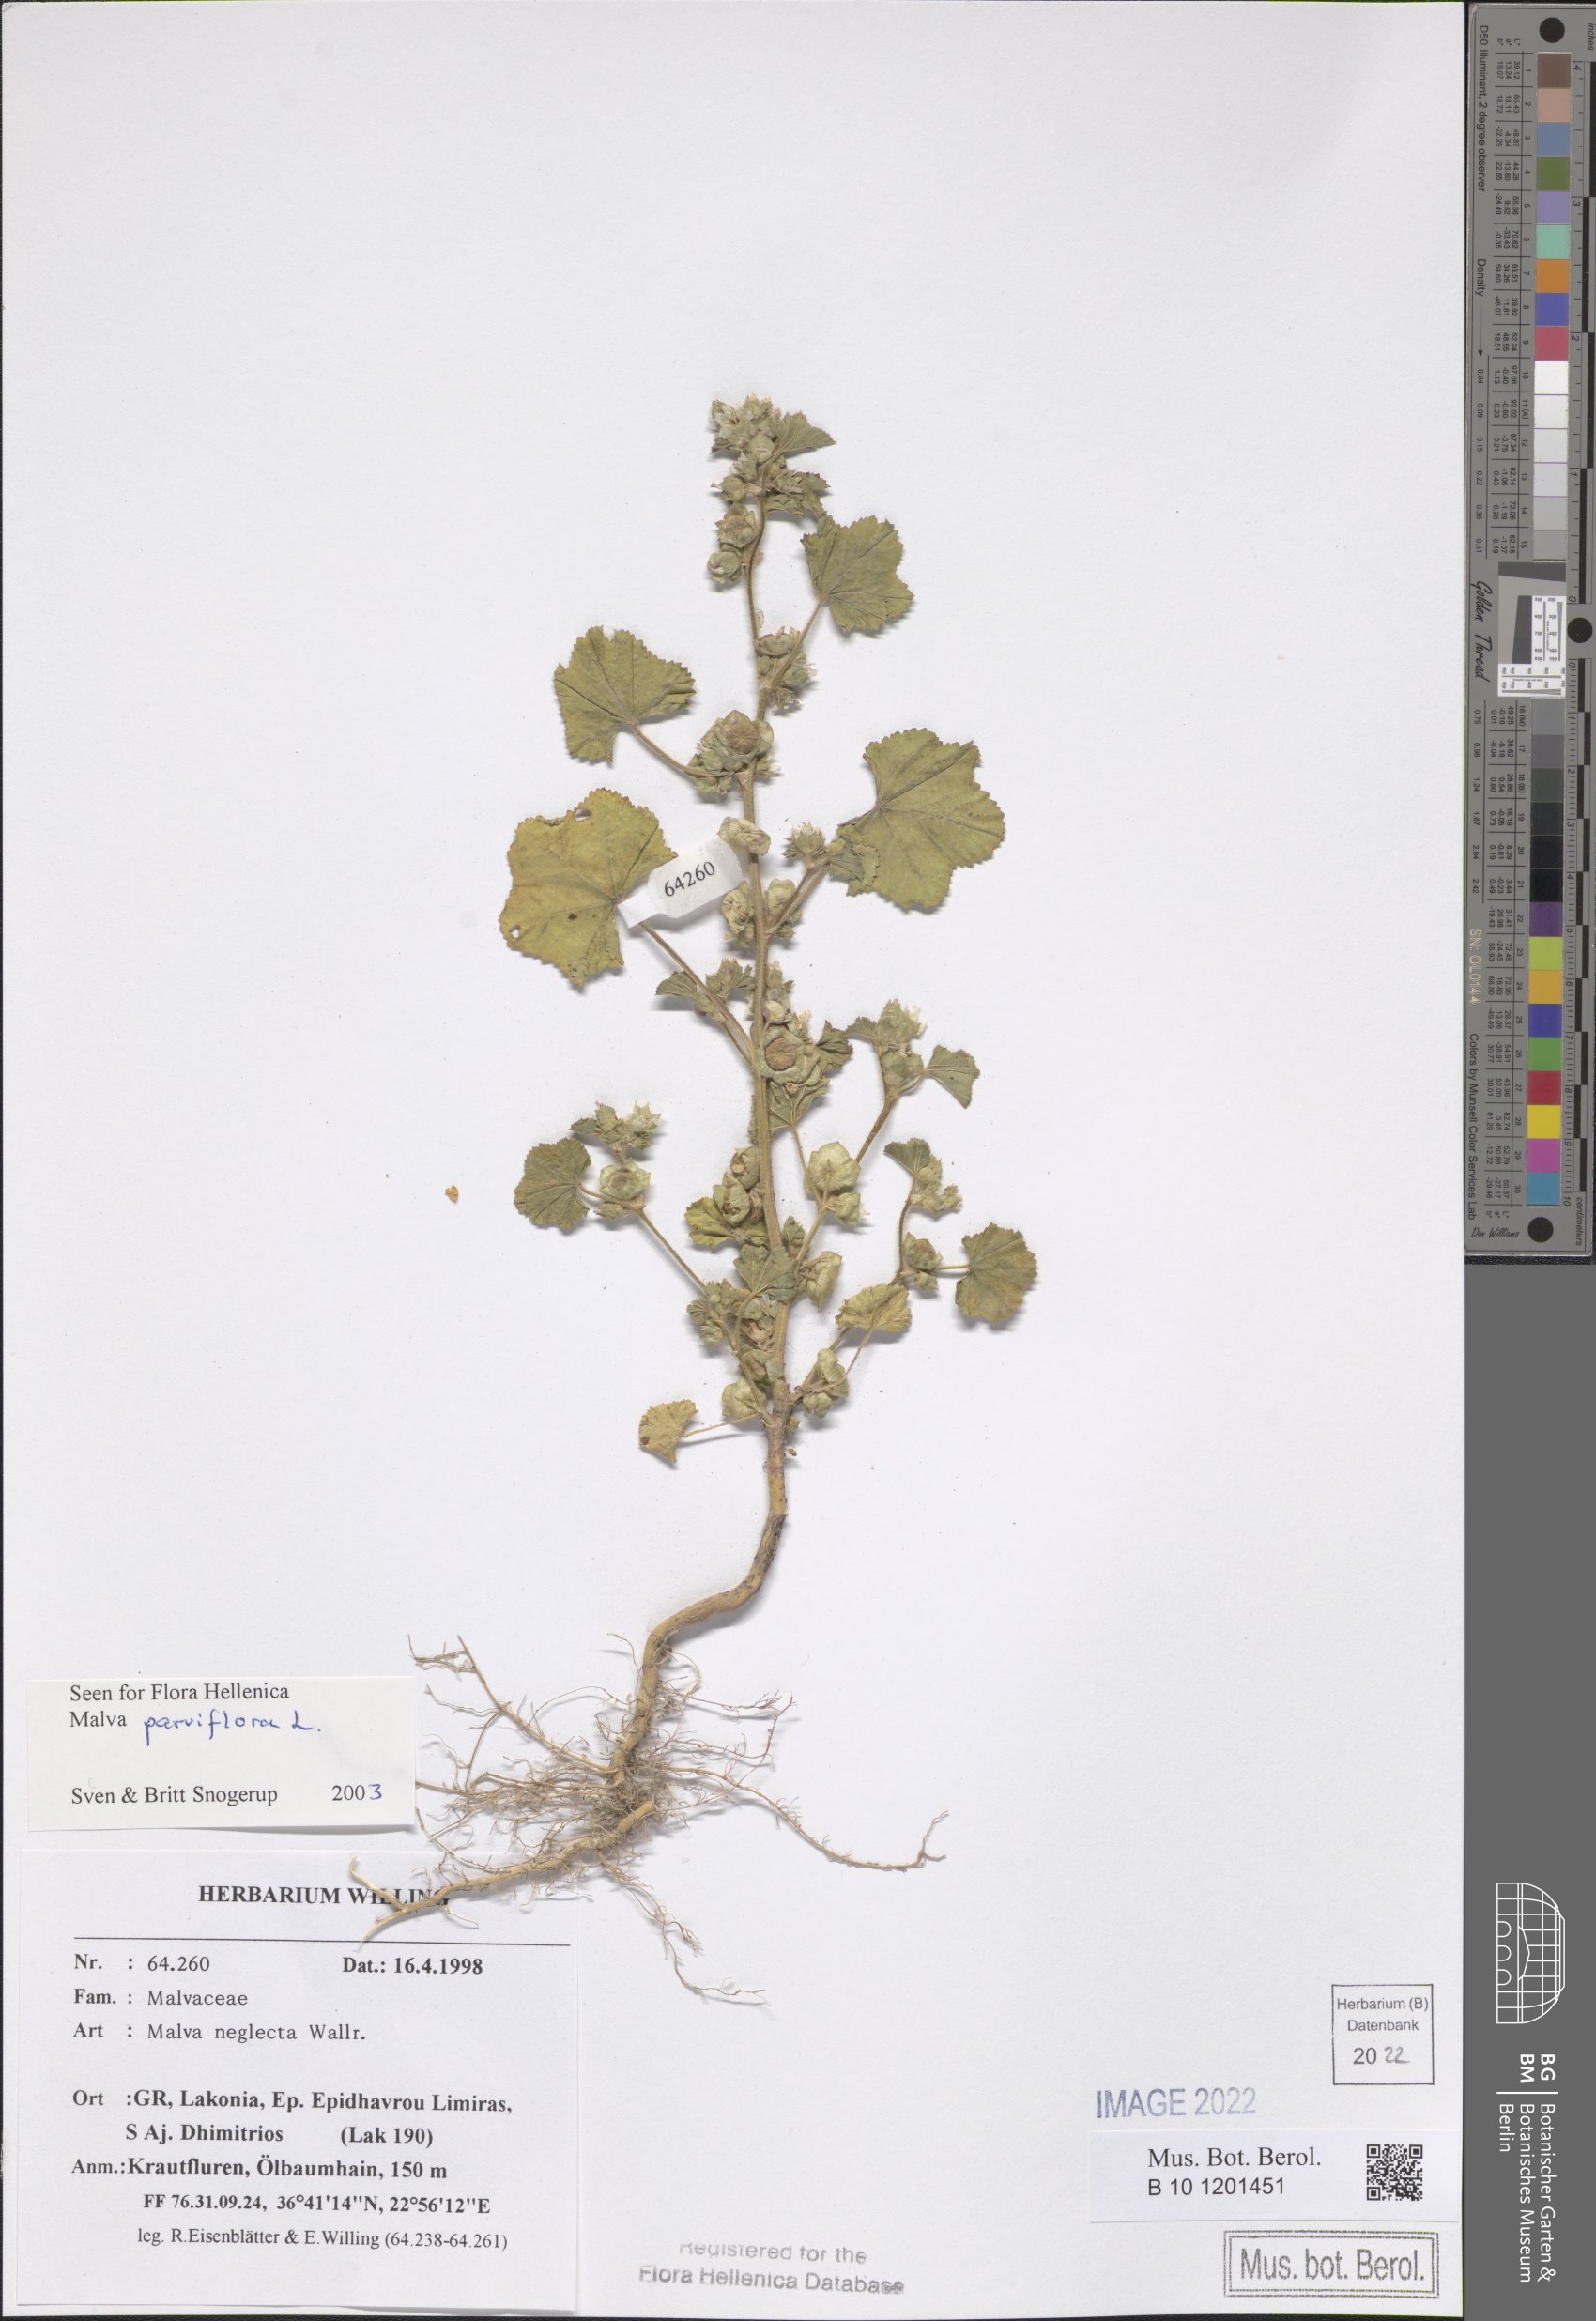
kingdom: Plantae
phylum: Tracheophyta
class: Magnoliopsida
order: Malvales
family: Malvaceae
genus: Malva
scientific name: Malva parviflora
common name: Least mallow
